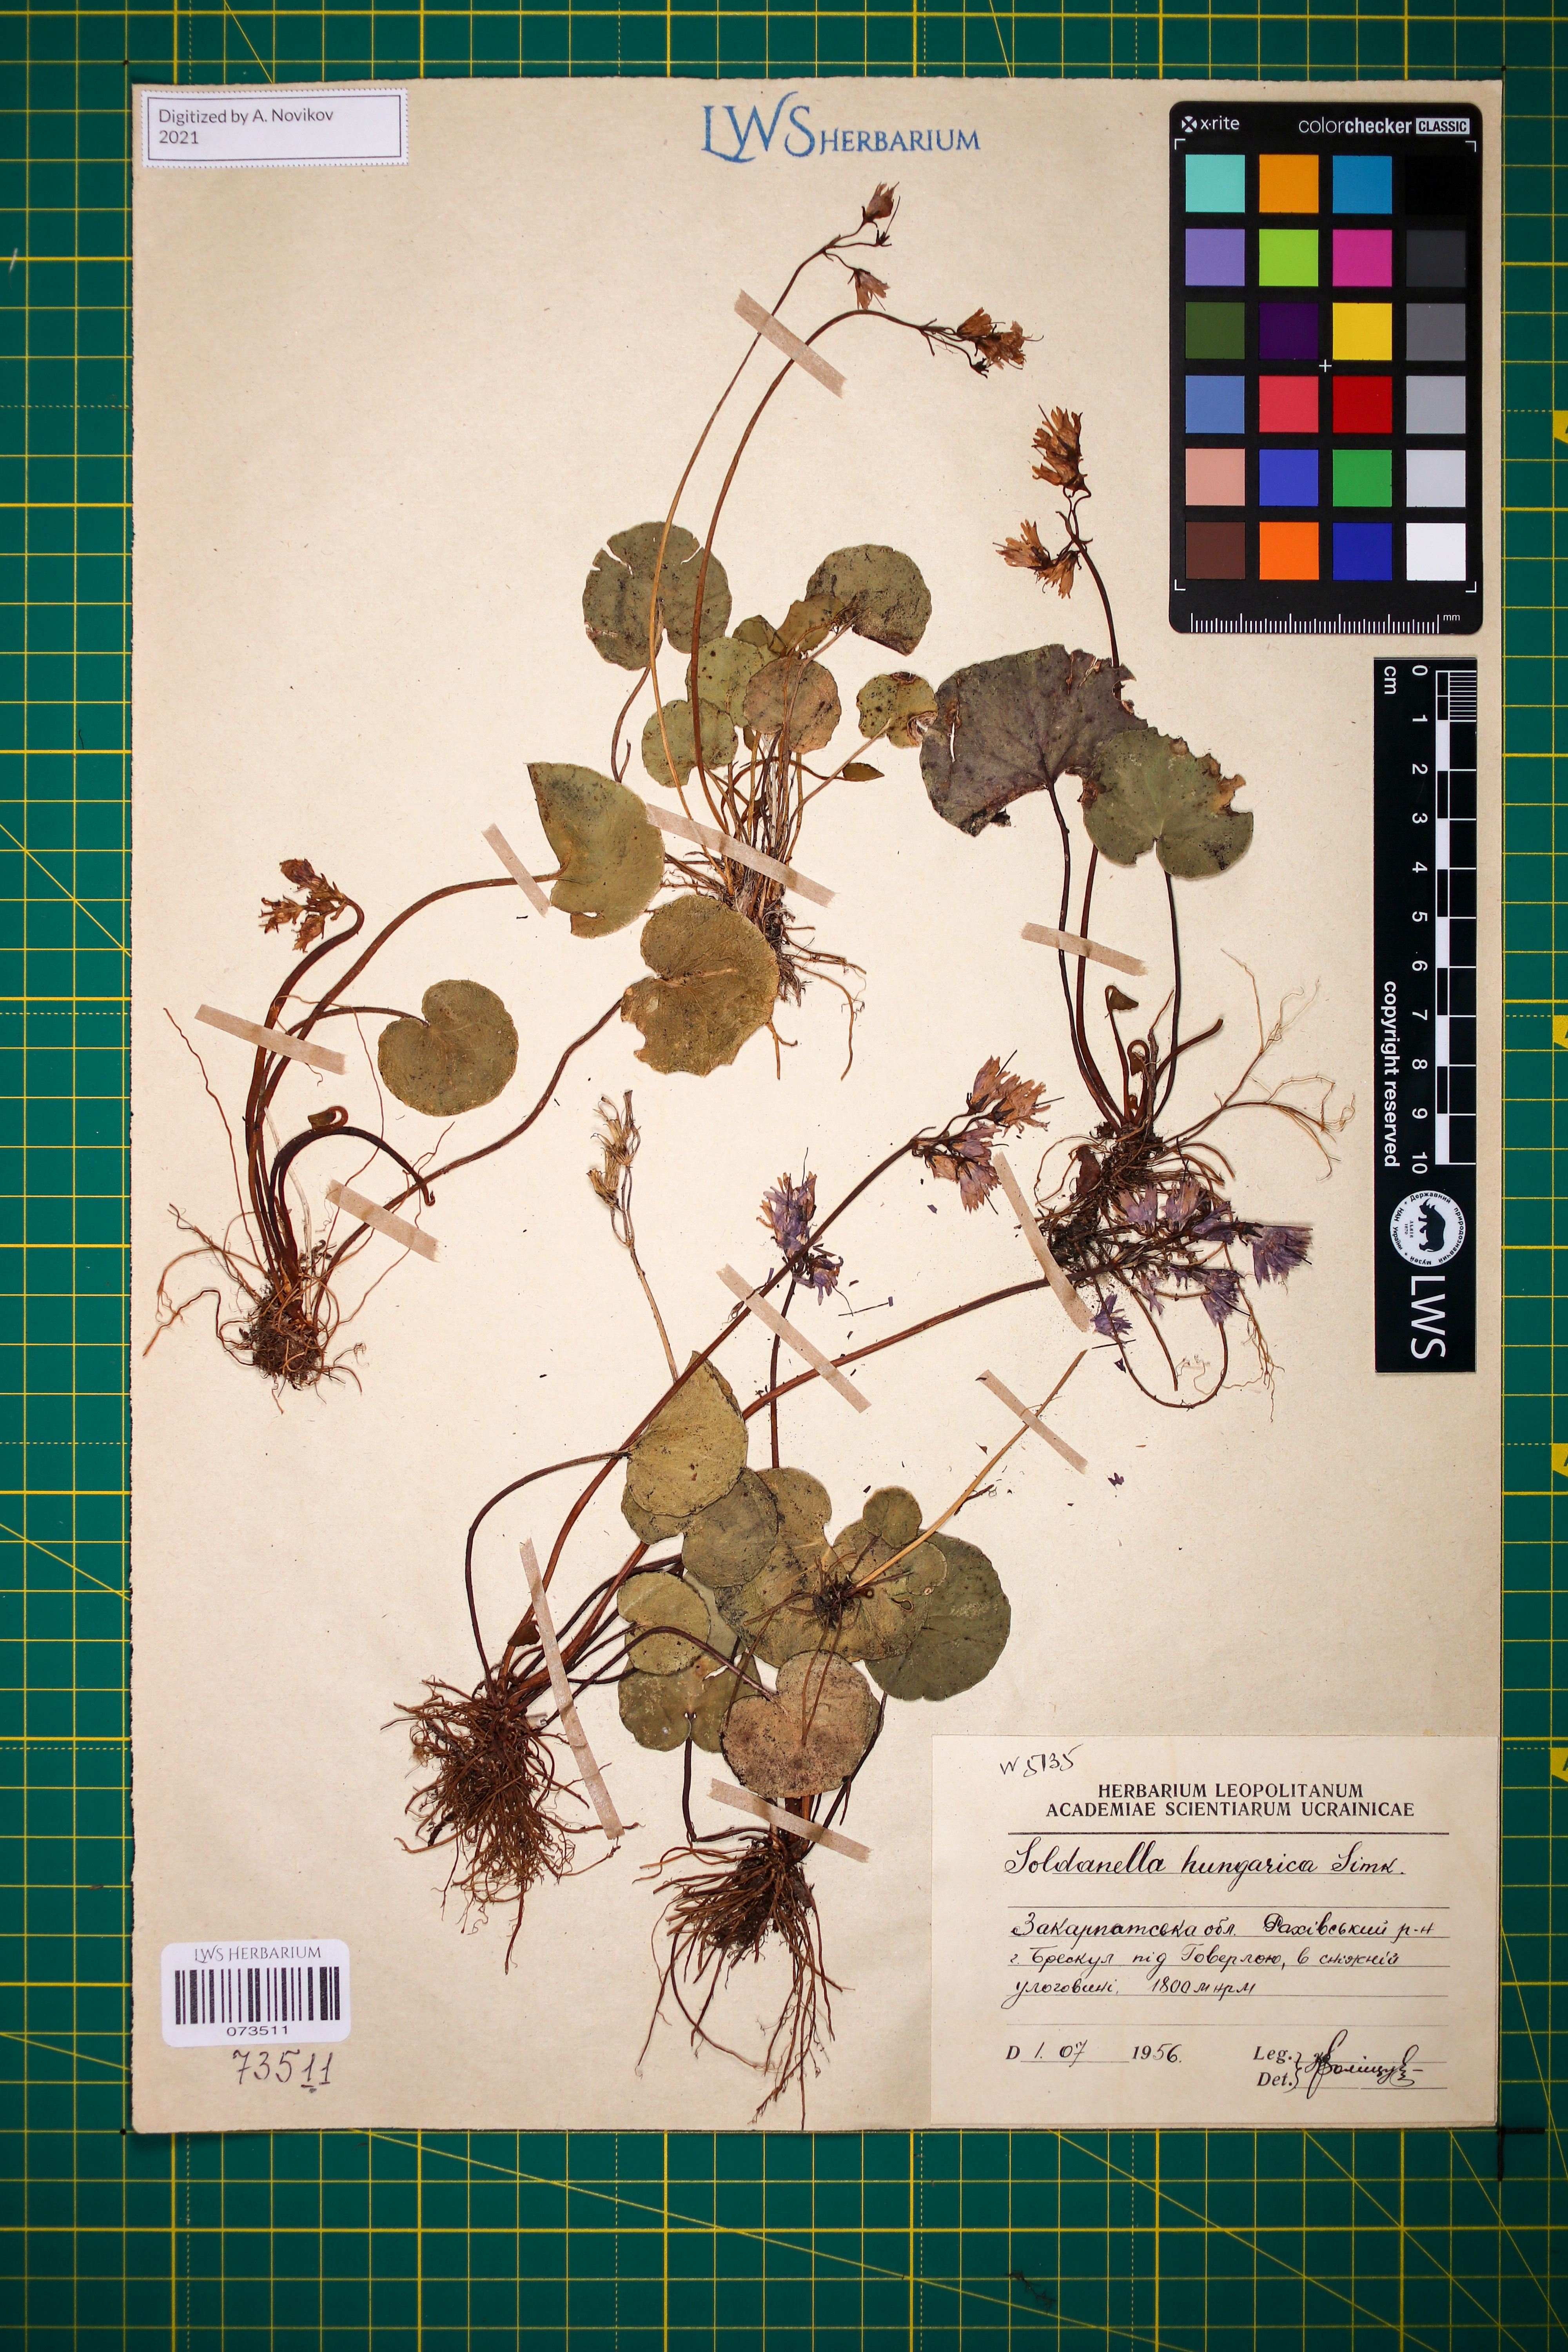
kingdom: Plantae
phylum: Tracheophyta
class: Magnoliopsida
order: Ericales
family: Primulaceae
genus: Soldanella
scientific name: Soldanella hungarica
